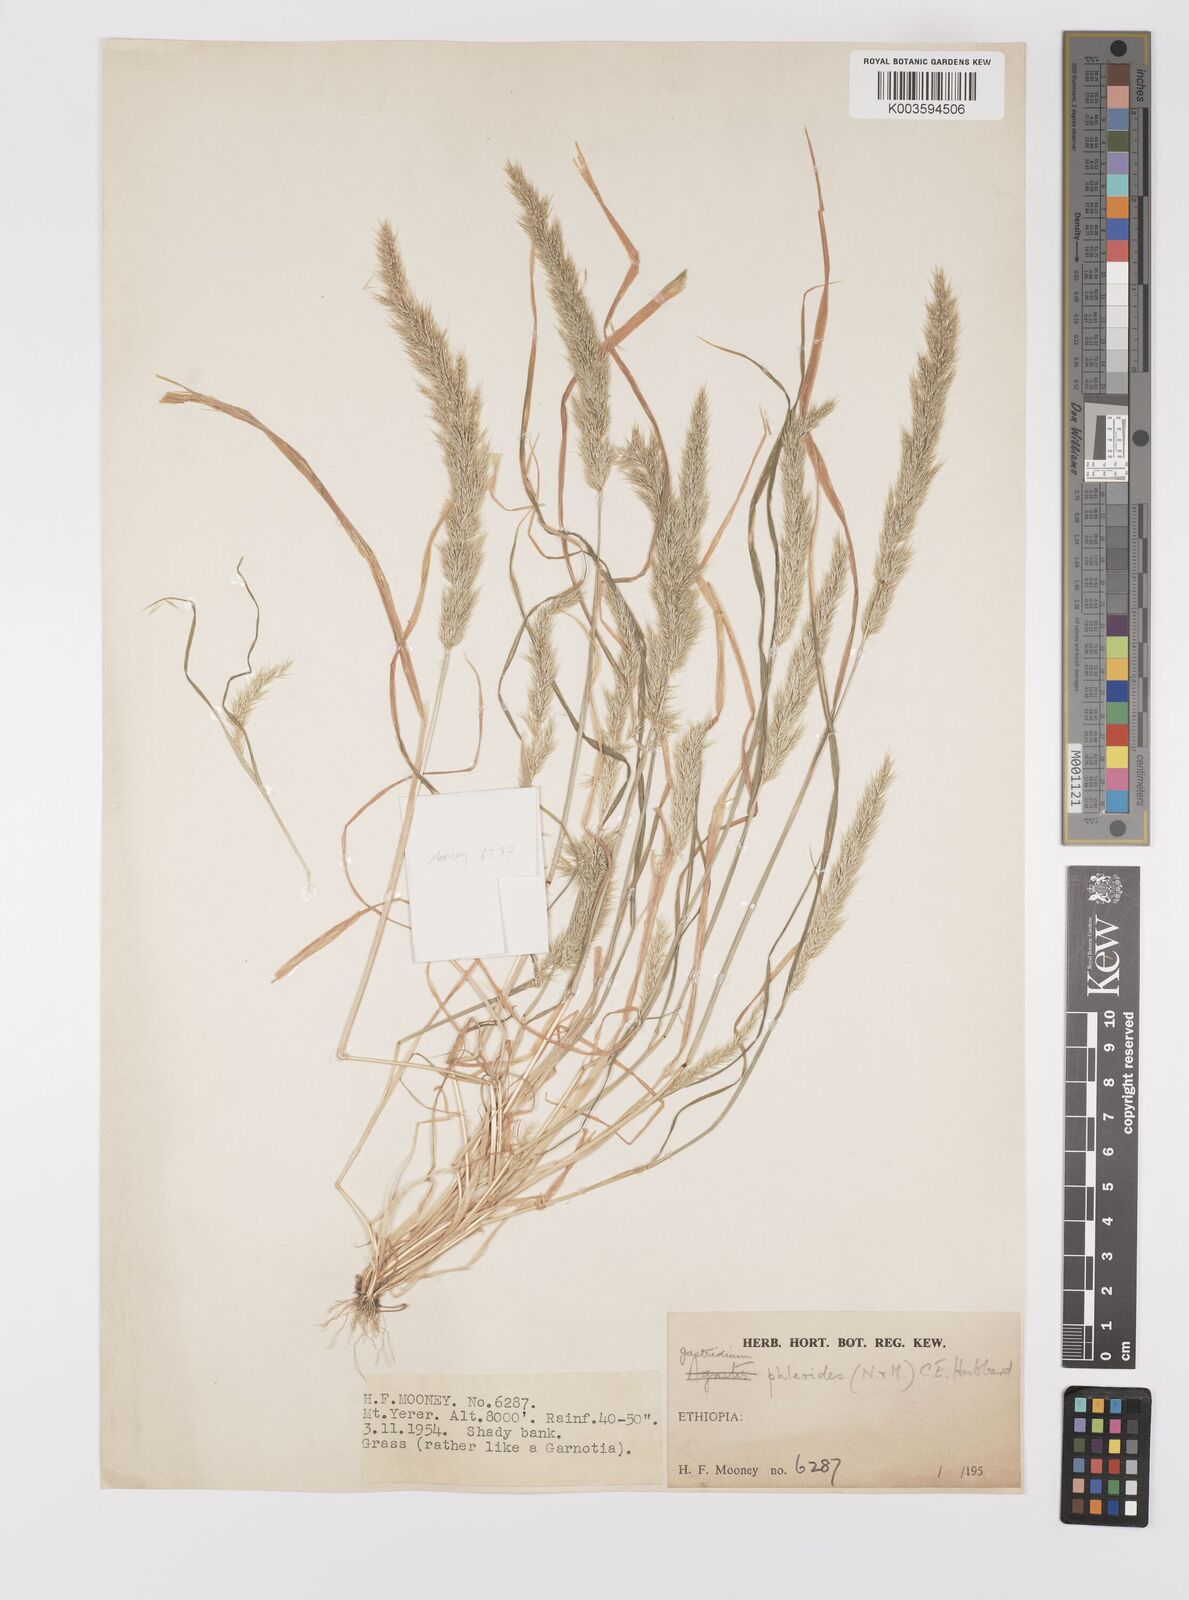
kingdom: Plantae
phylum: Tracheophyta
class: Liliopsida
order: Poales
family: Poaceae
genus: Gastridium
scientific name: Gastridium phleoides
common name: Nit grass
